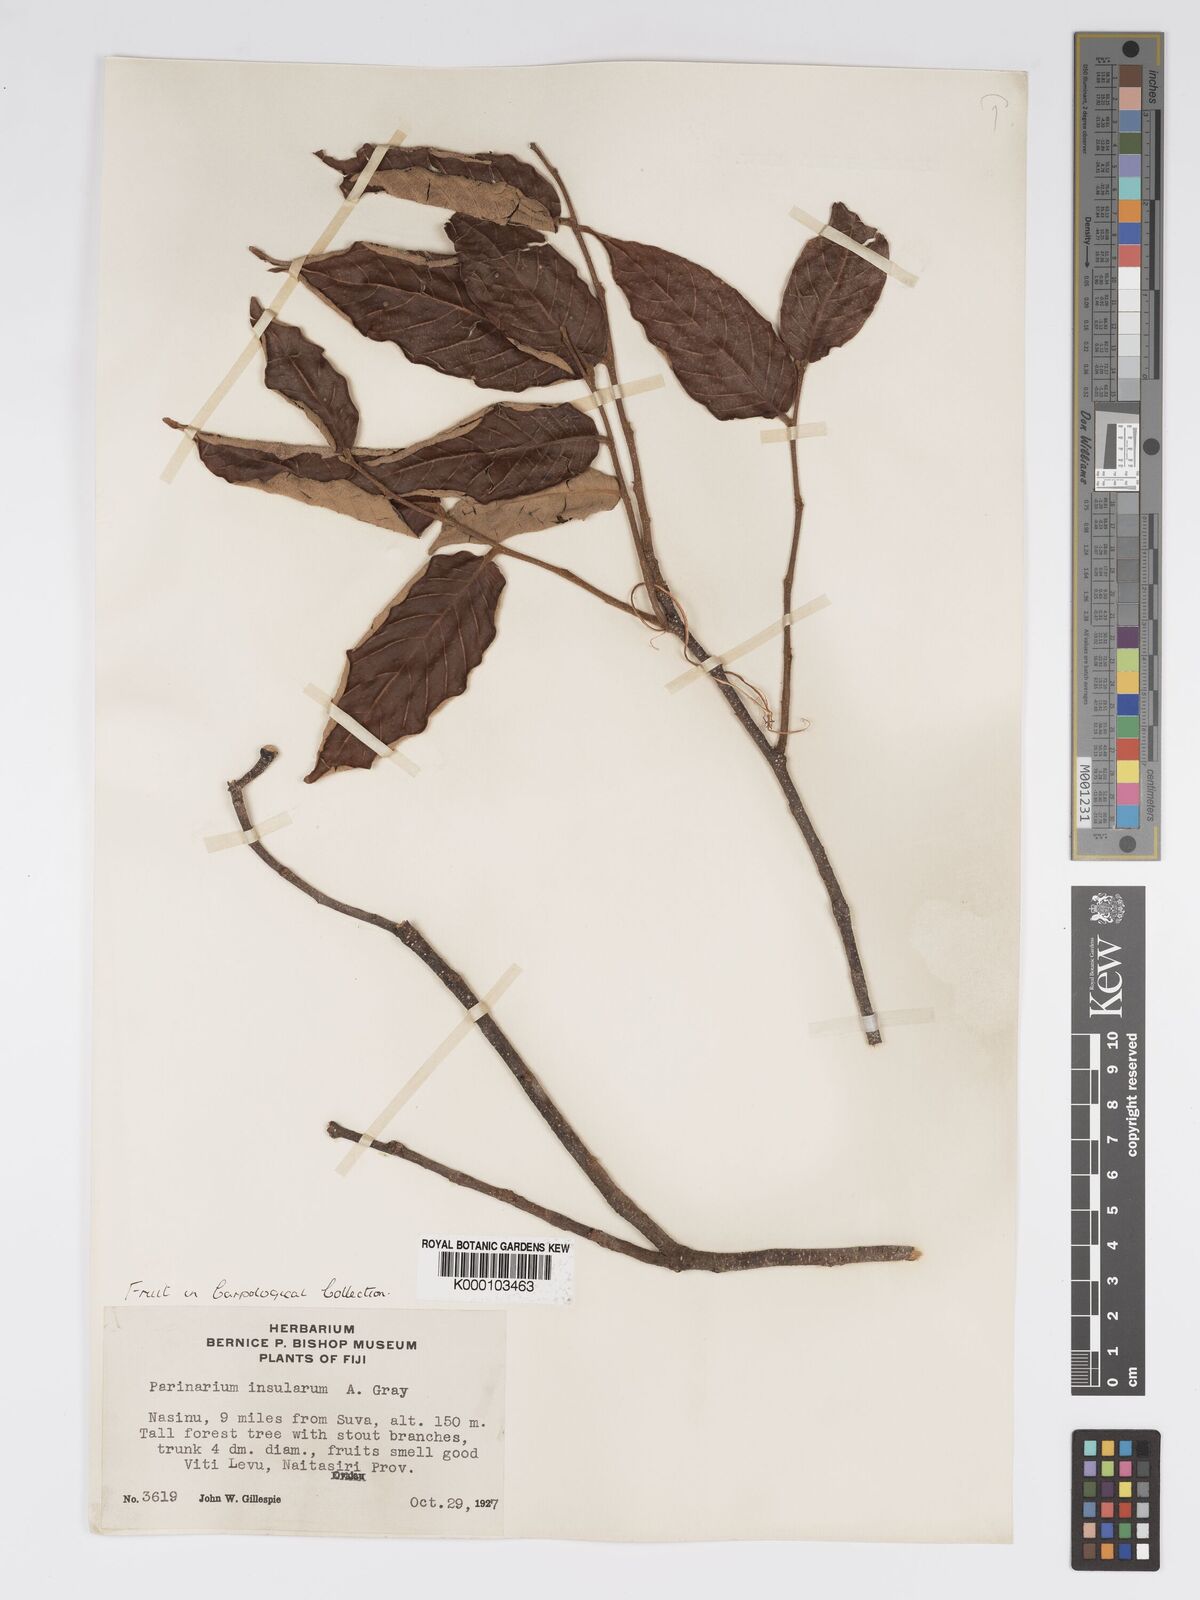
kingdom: Plantae
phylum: Tracheophyta
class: Magnoliopsida
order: Malpighiales
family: Chrysobalanaceae
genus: Parinari
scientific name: Parinari insularum
